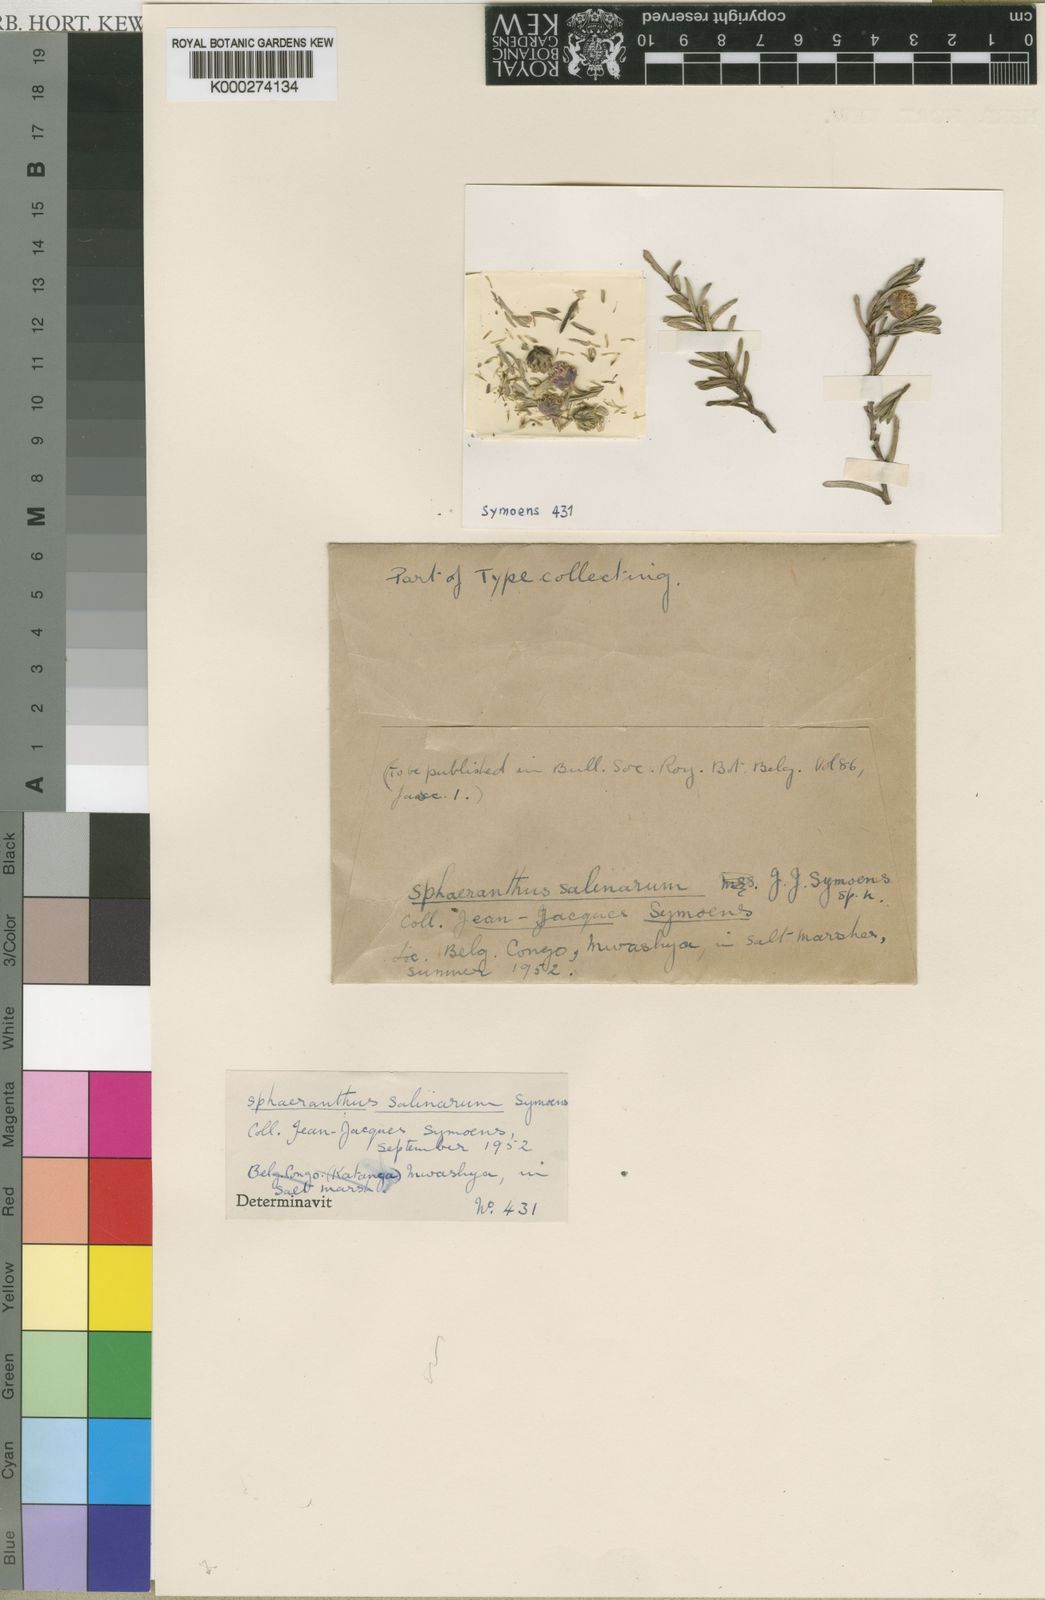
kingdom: Plantae
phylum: Tracheophyta
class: Magnoliopsida
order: Asterales
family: Asteraceae
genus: Sphaeranthus
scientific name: Sphaeranthus salinarum
